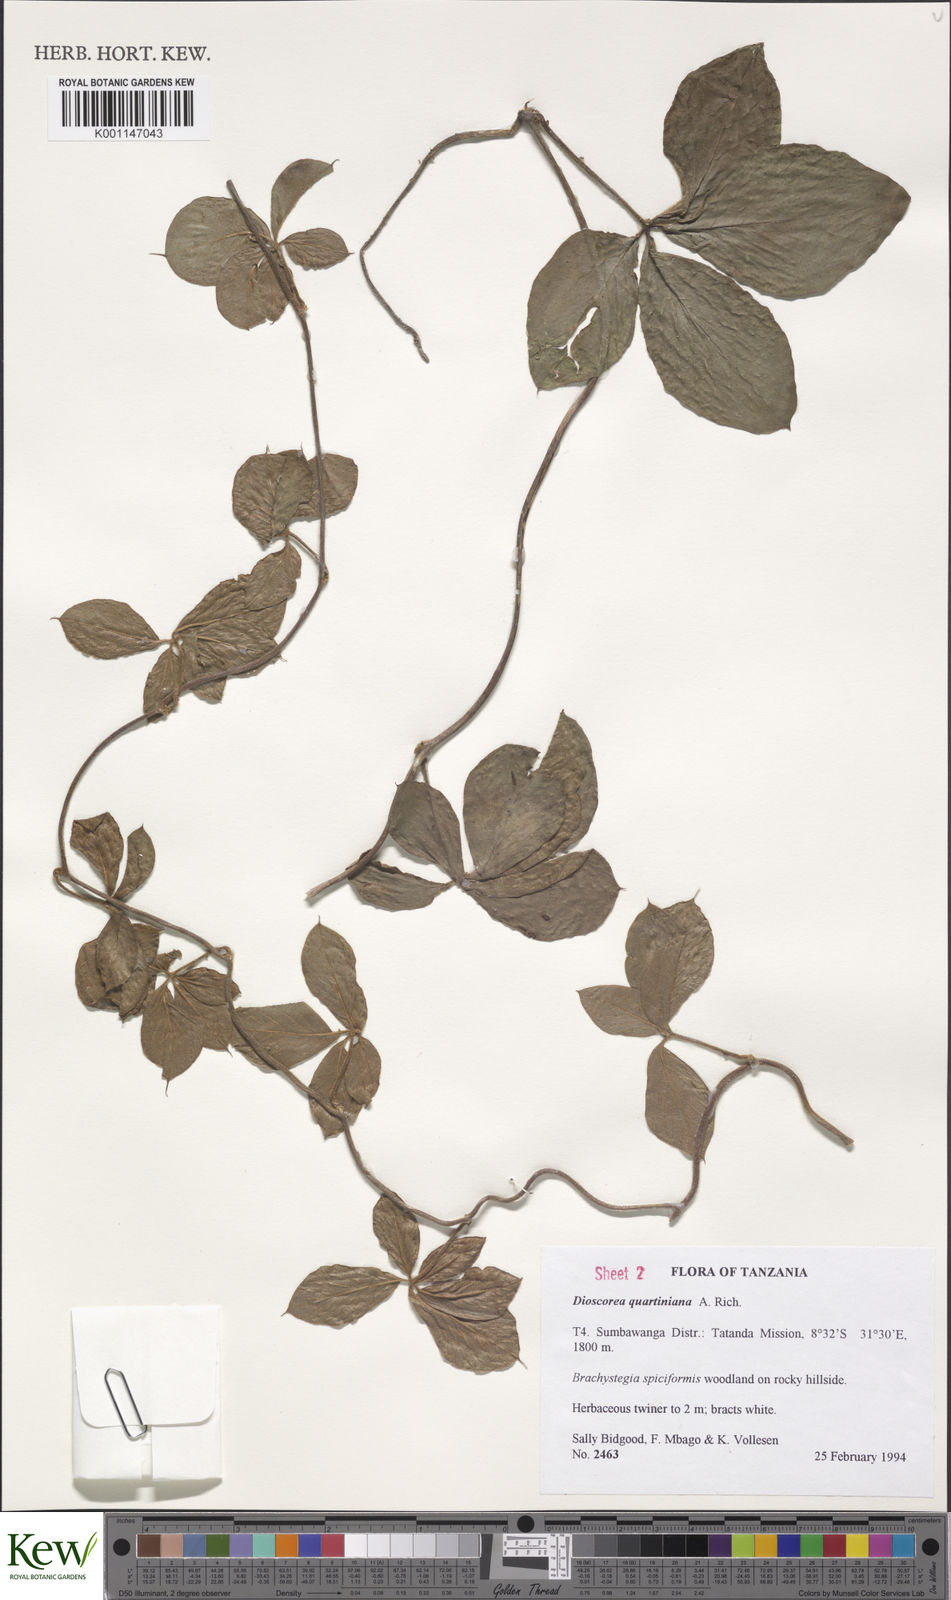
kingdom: Plantae
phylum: Tracheophyta
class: Liliopsida
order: Dioscoreales
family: Dioscoreaceae
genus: Dioscorea
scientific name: Dioscorea quartiniana
